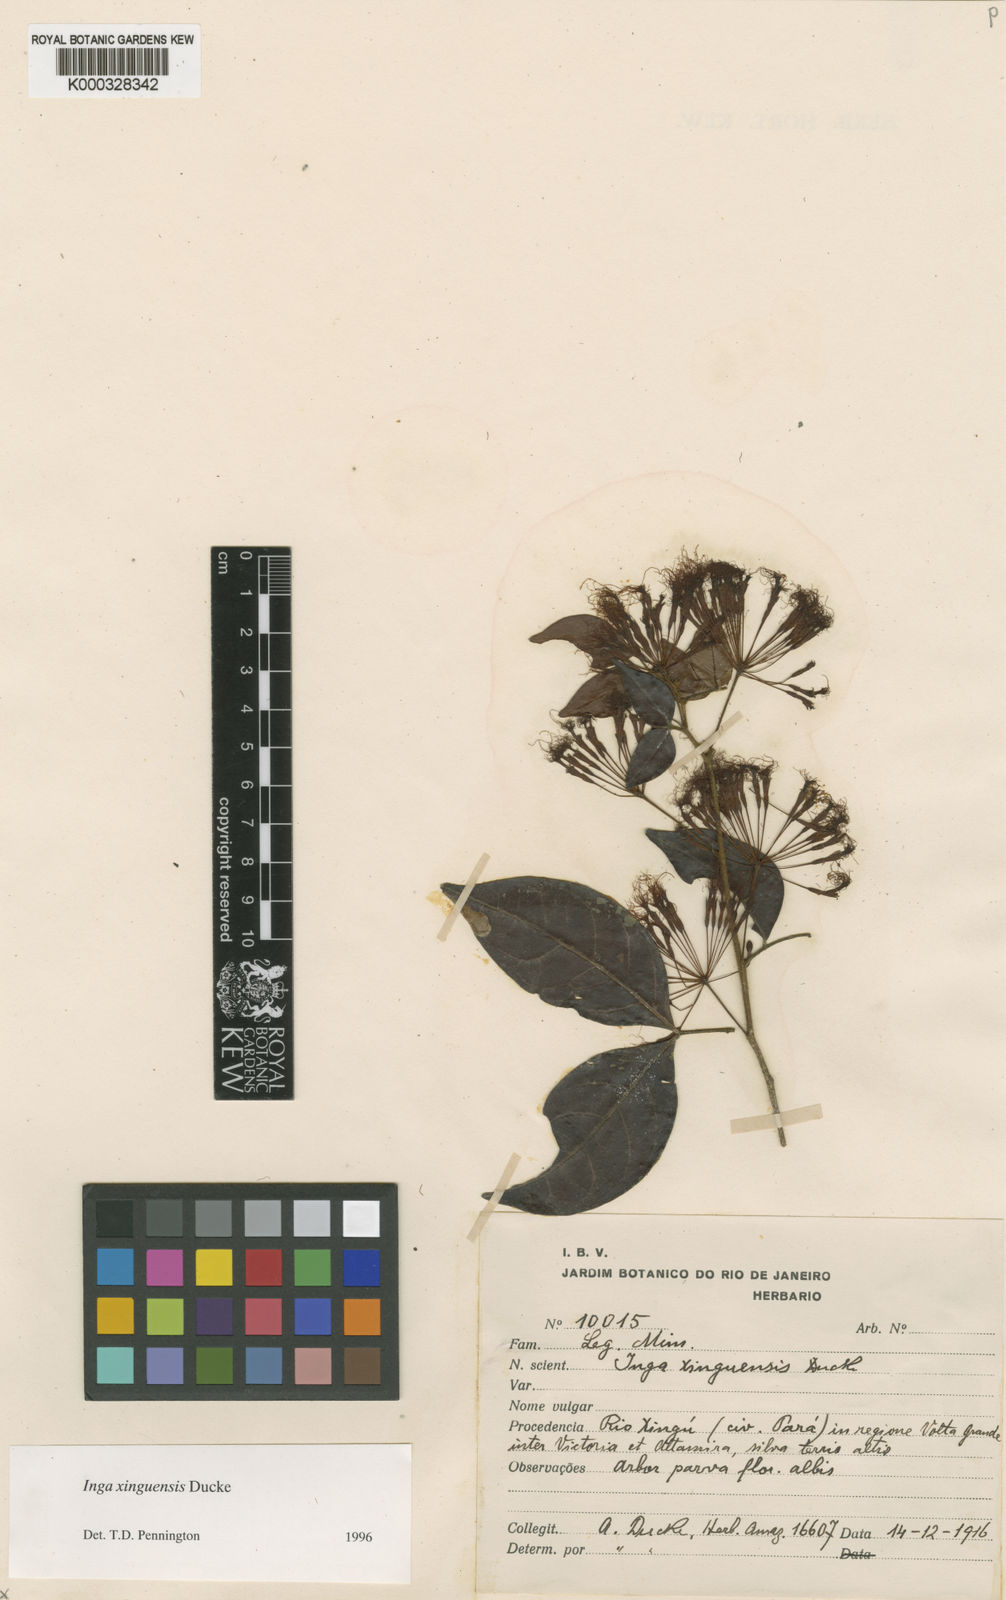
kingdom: Plantae
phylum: Tracheophyta
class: Magnoliopsida
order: Fabales
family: Fabaceae
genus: Inga
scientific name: Inga xinguensis
